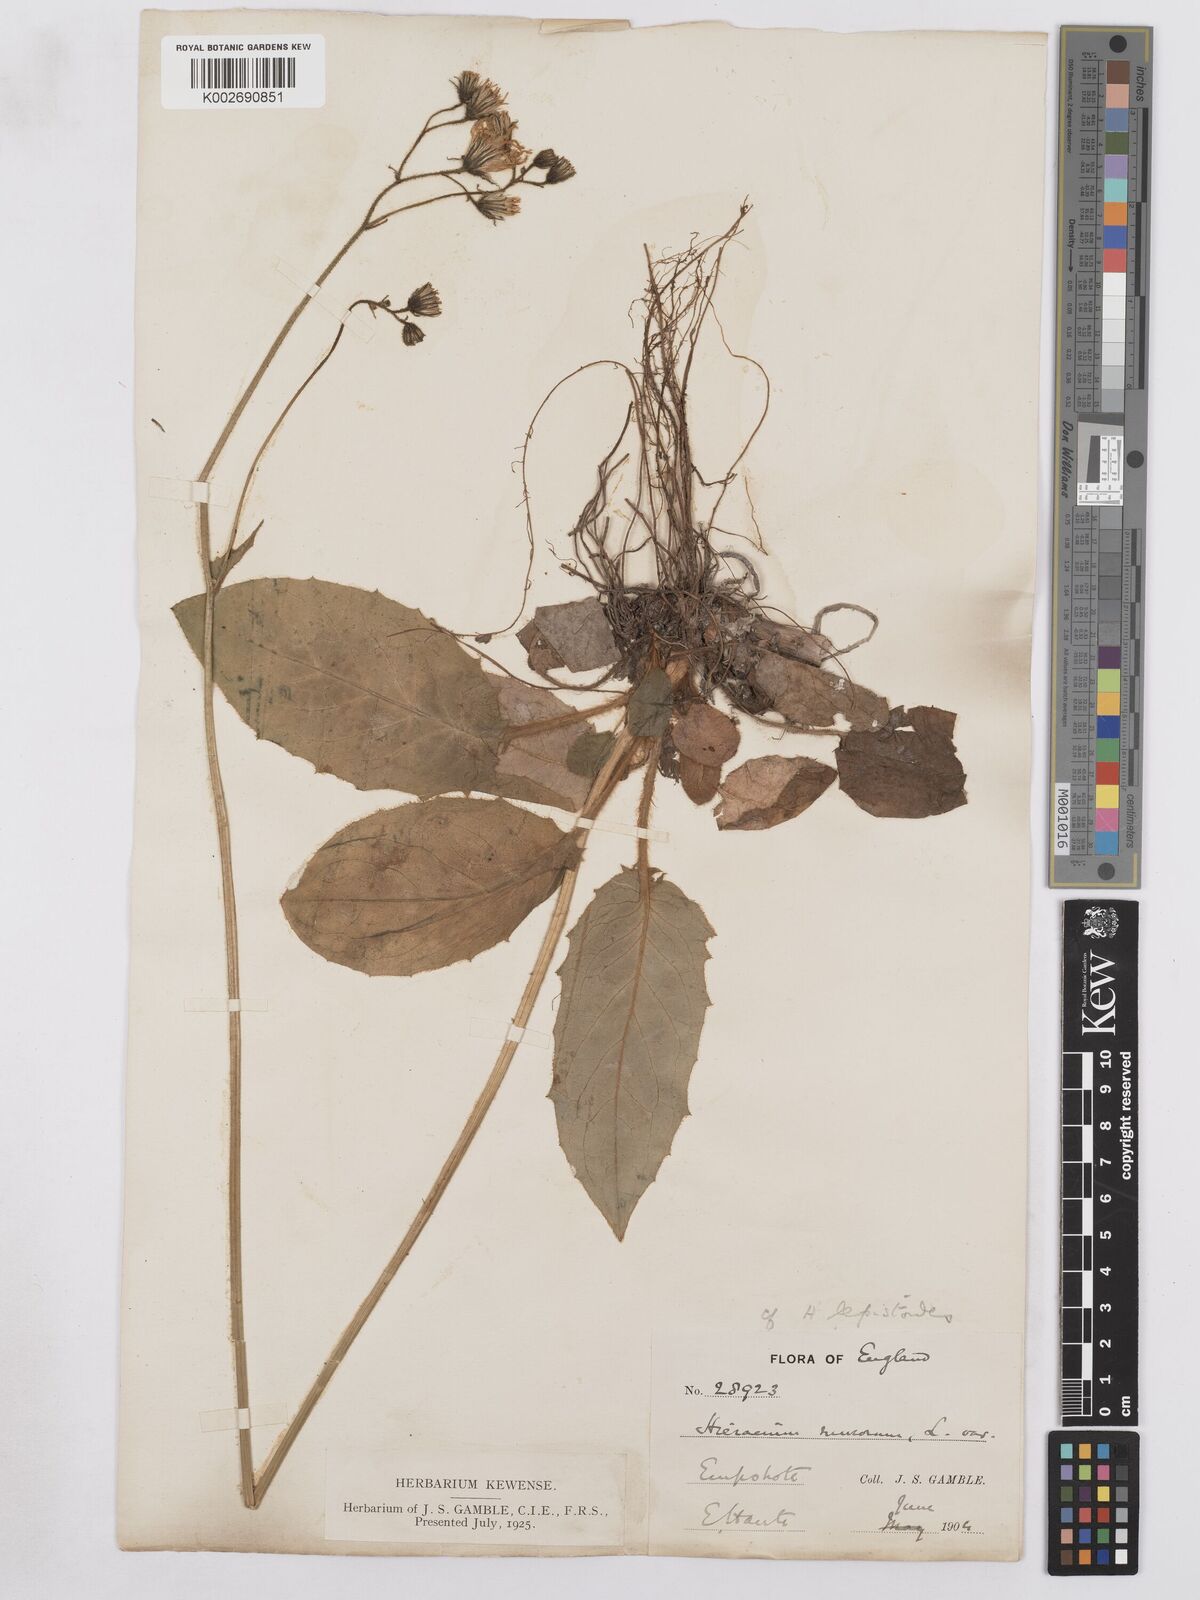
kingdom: Plantae
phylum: Tracheophyta
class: Magnoliopsida
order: Asterales
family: Asteraceae
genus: Hieracium
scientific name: Hieracium murorum
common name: Wall hawkweed
